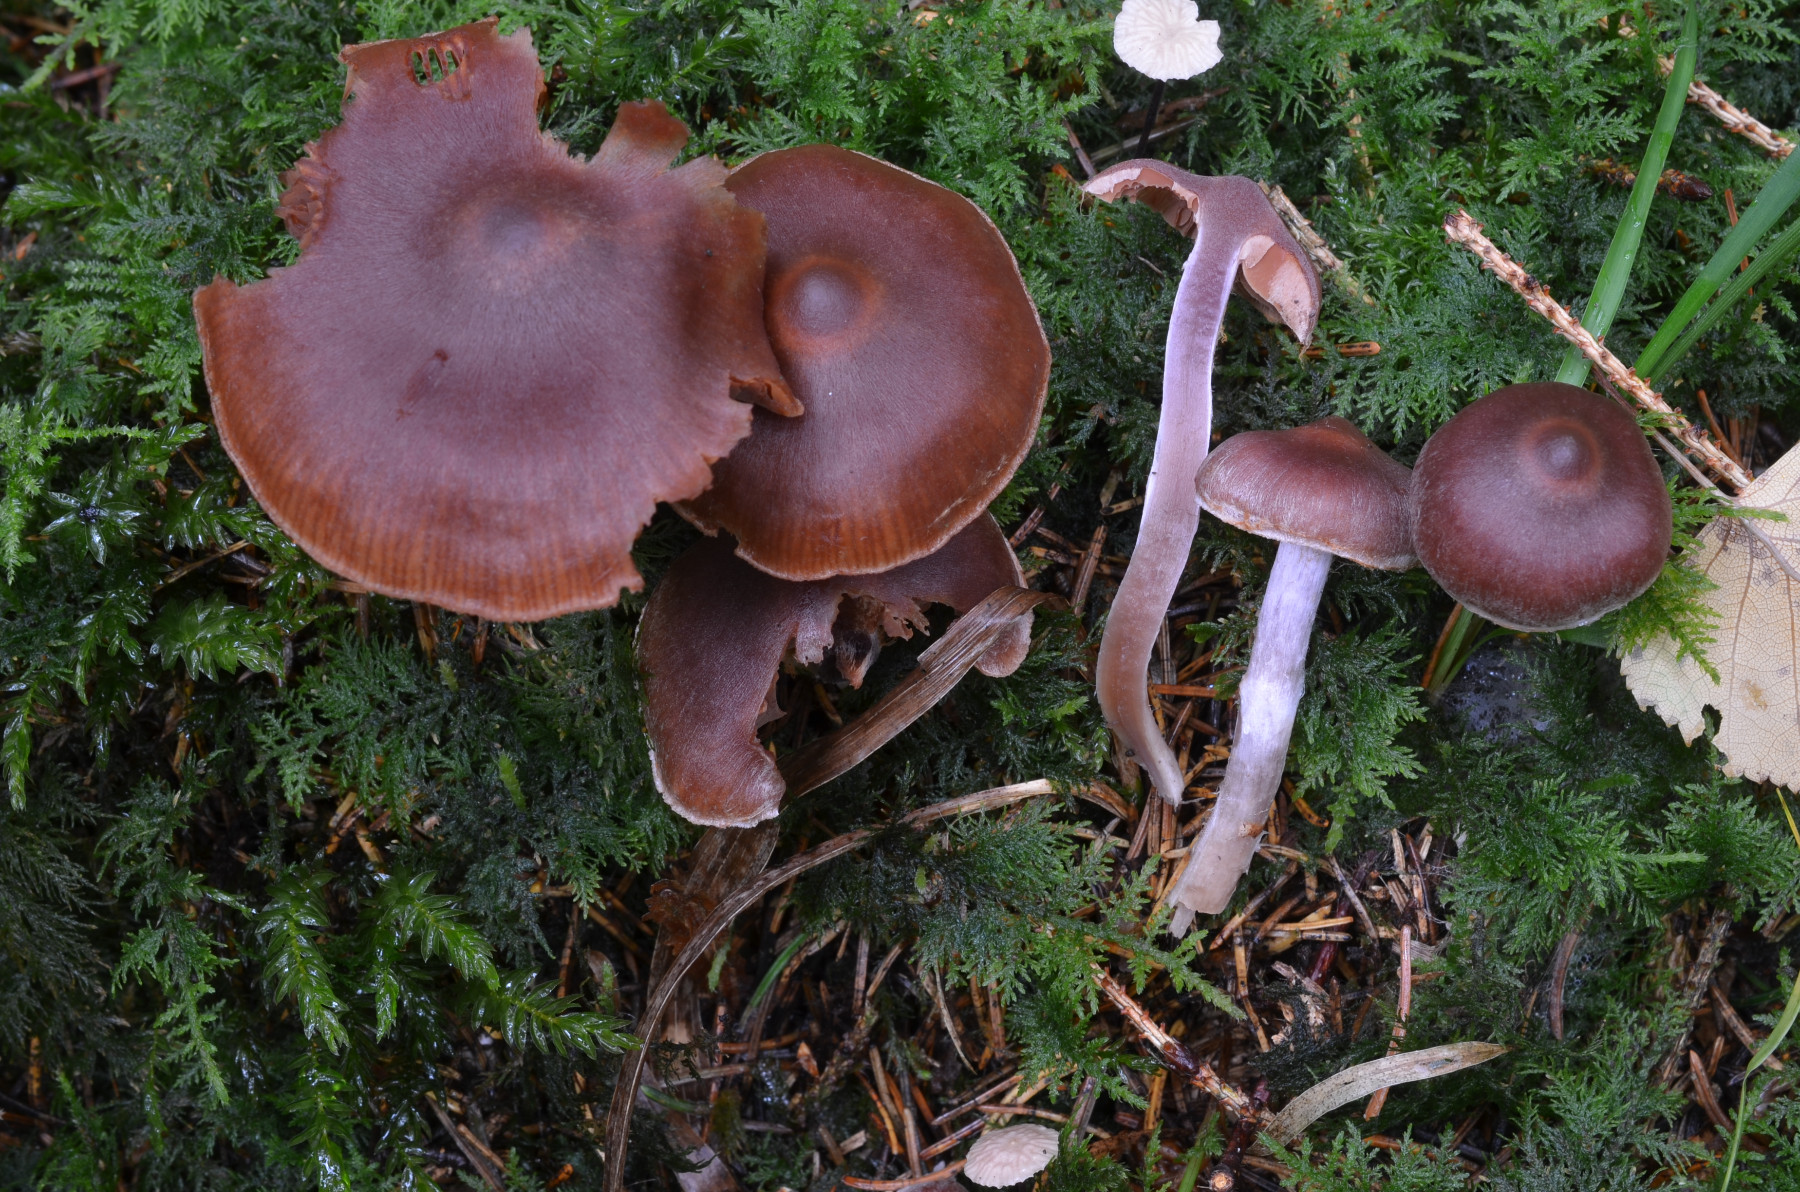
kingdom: Fungi
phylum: Basidiomycota
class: Agaricomycetes
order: Agaricales
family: Cortinariaceae
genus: Cortinarius
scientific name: Cortinarius tortuosus
